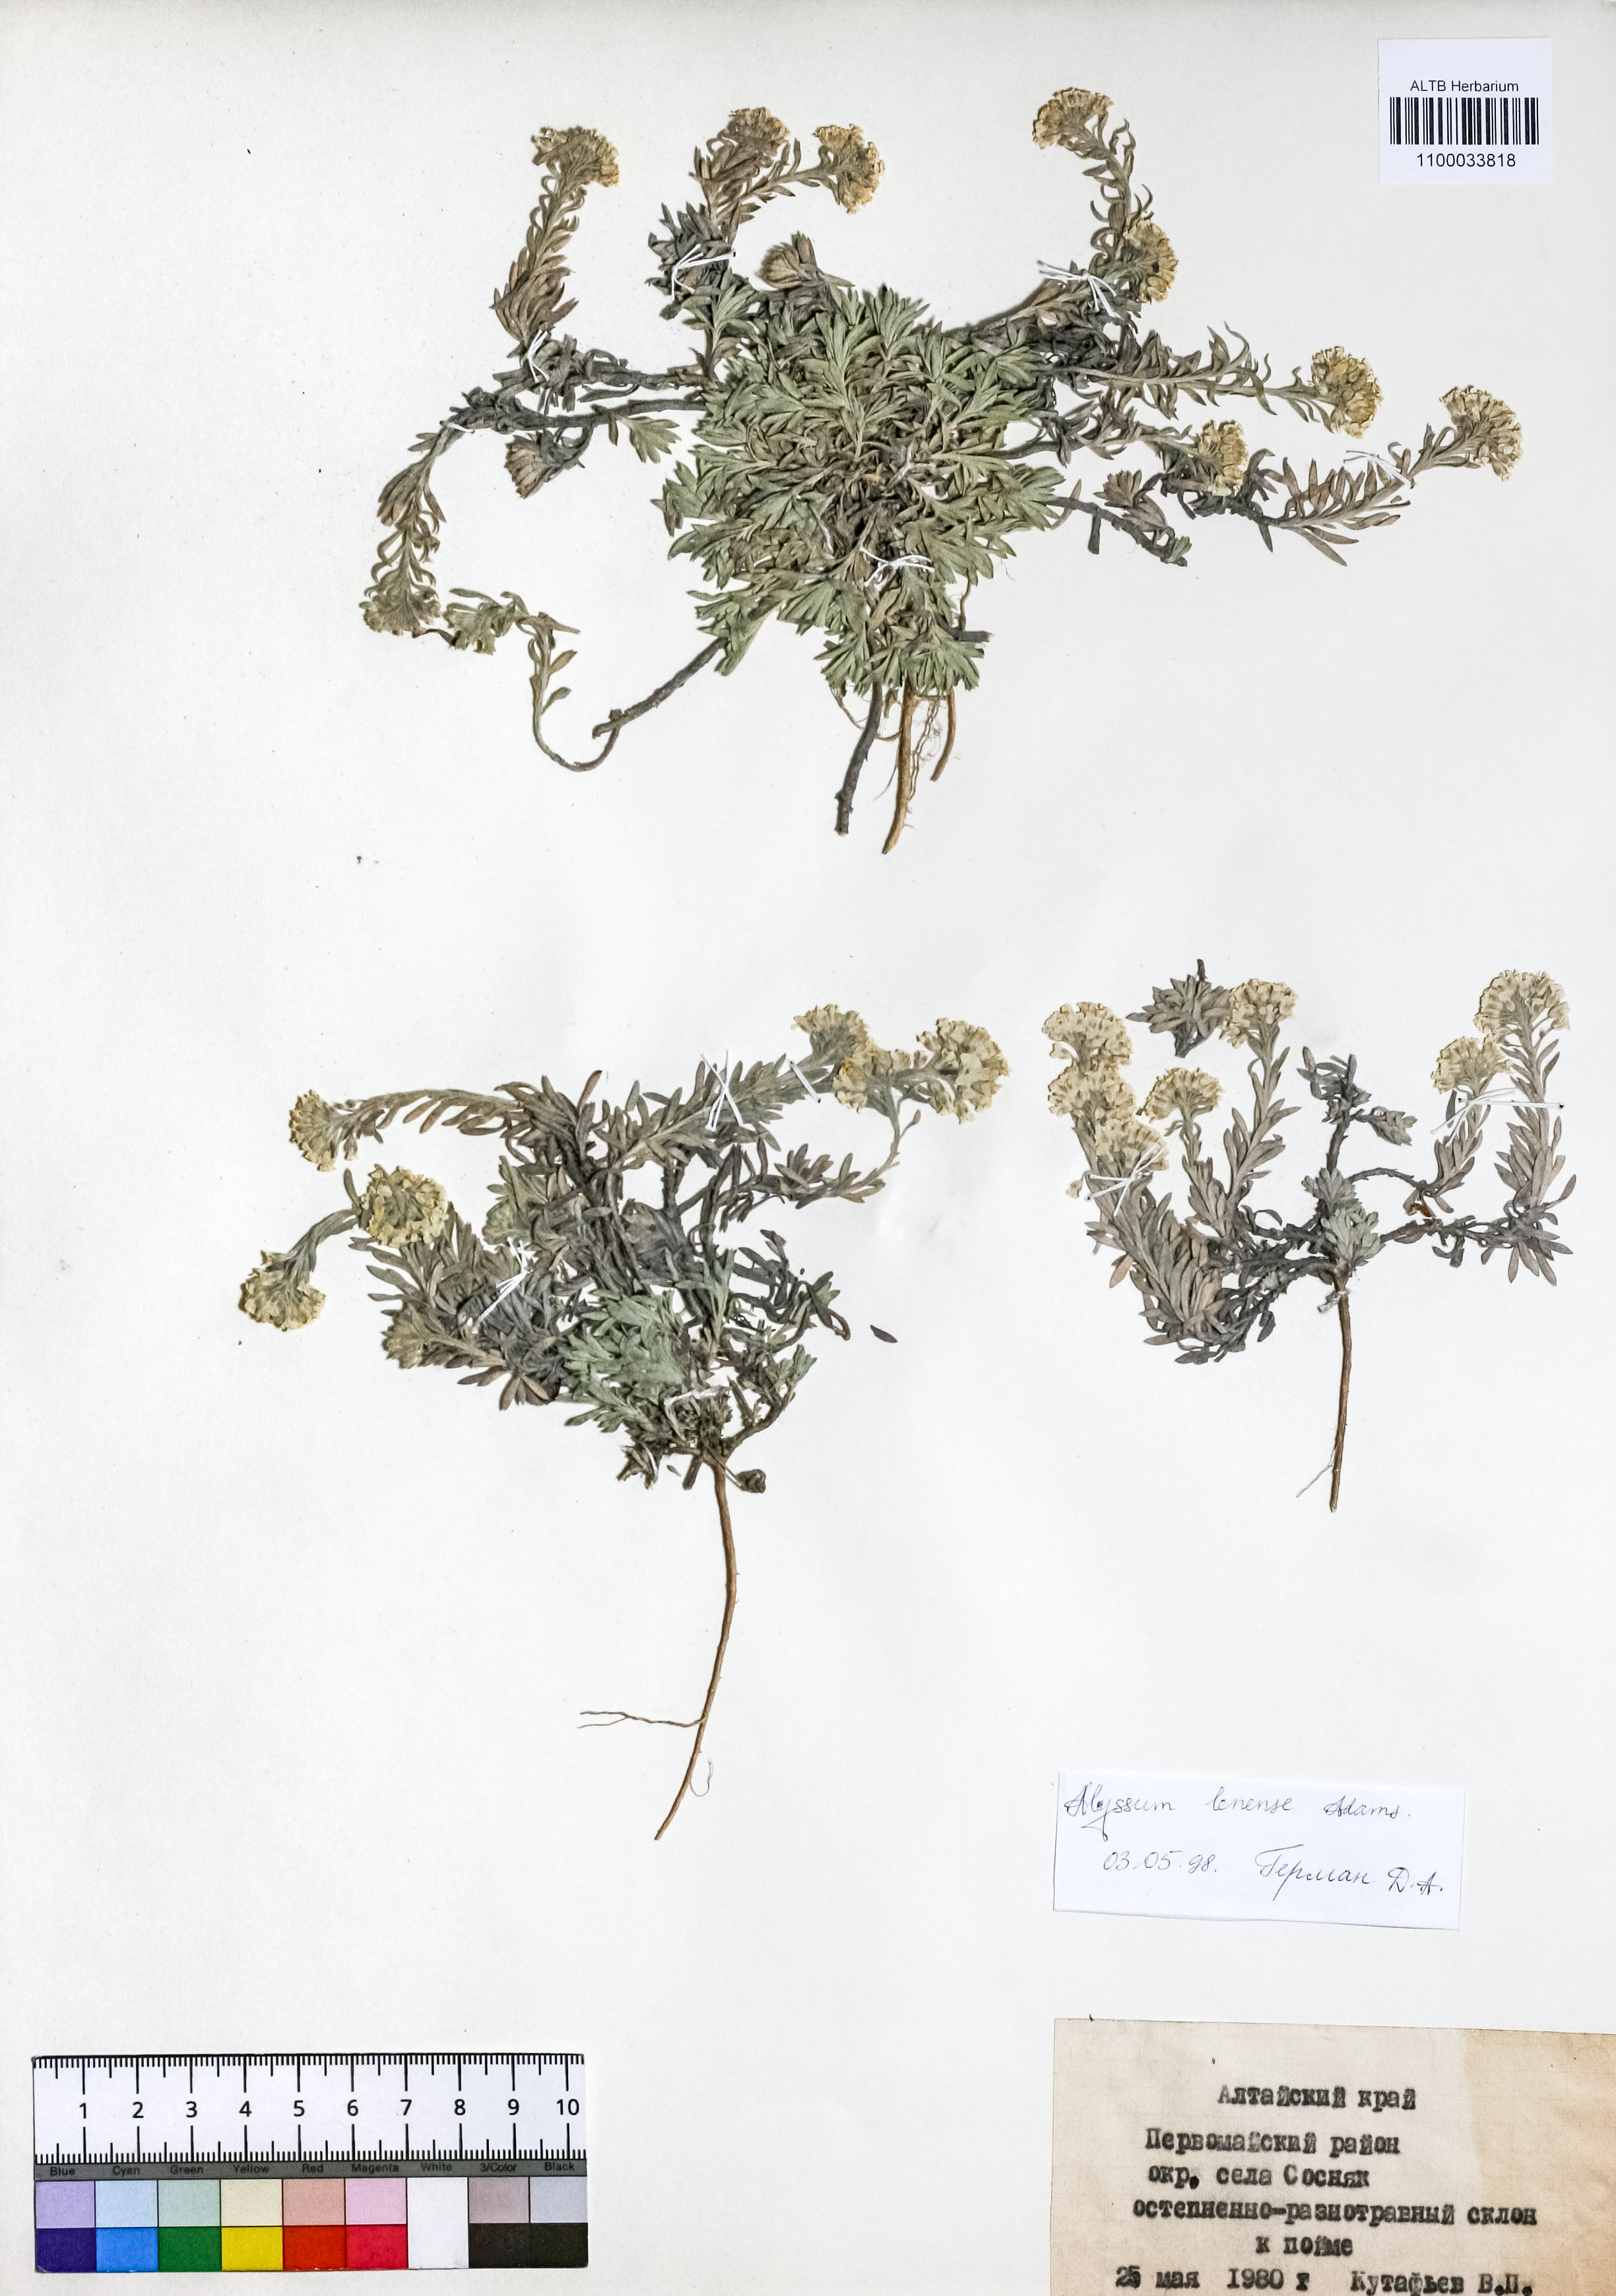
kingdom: Plantae
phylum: Tracheophyta
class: Magnoliopsida
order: Brassicales
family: Brassicaceae
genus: Alyssum
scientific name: Alyssum lenense
